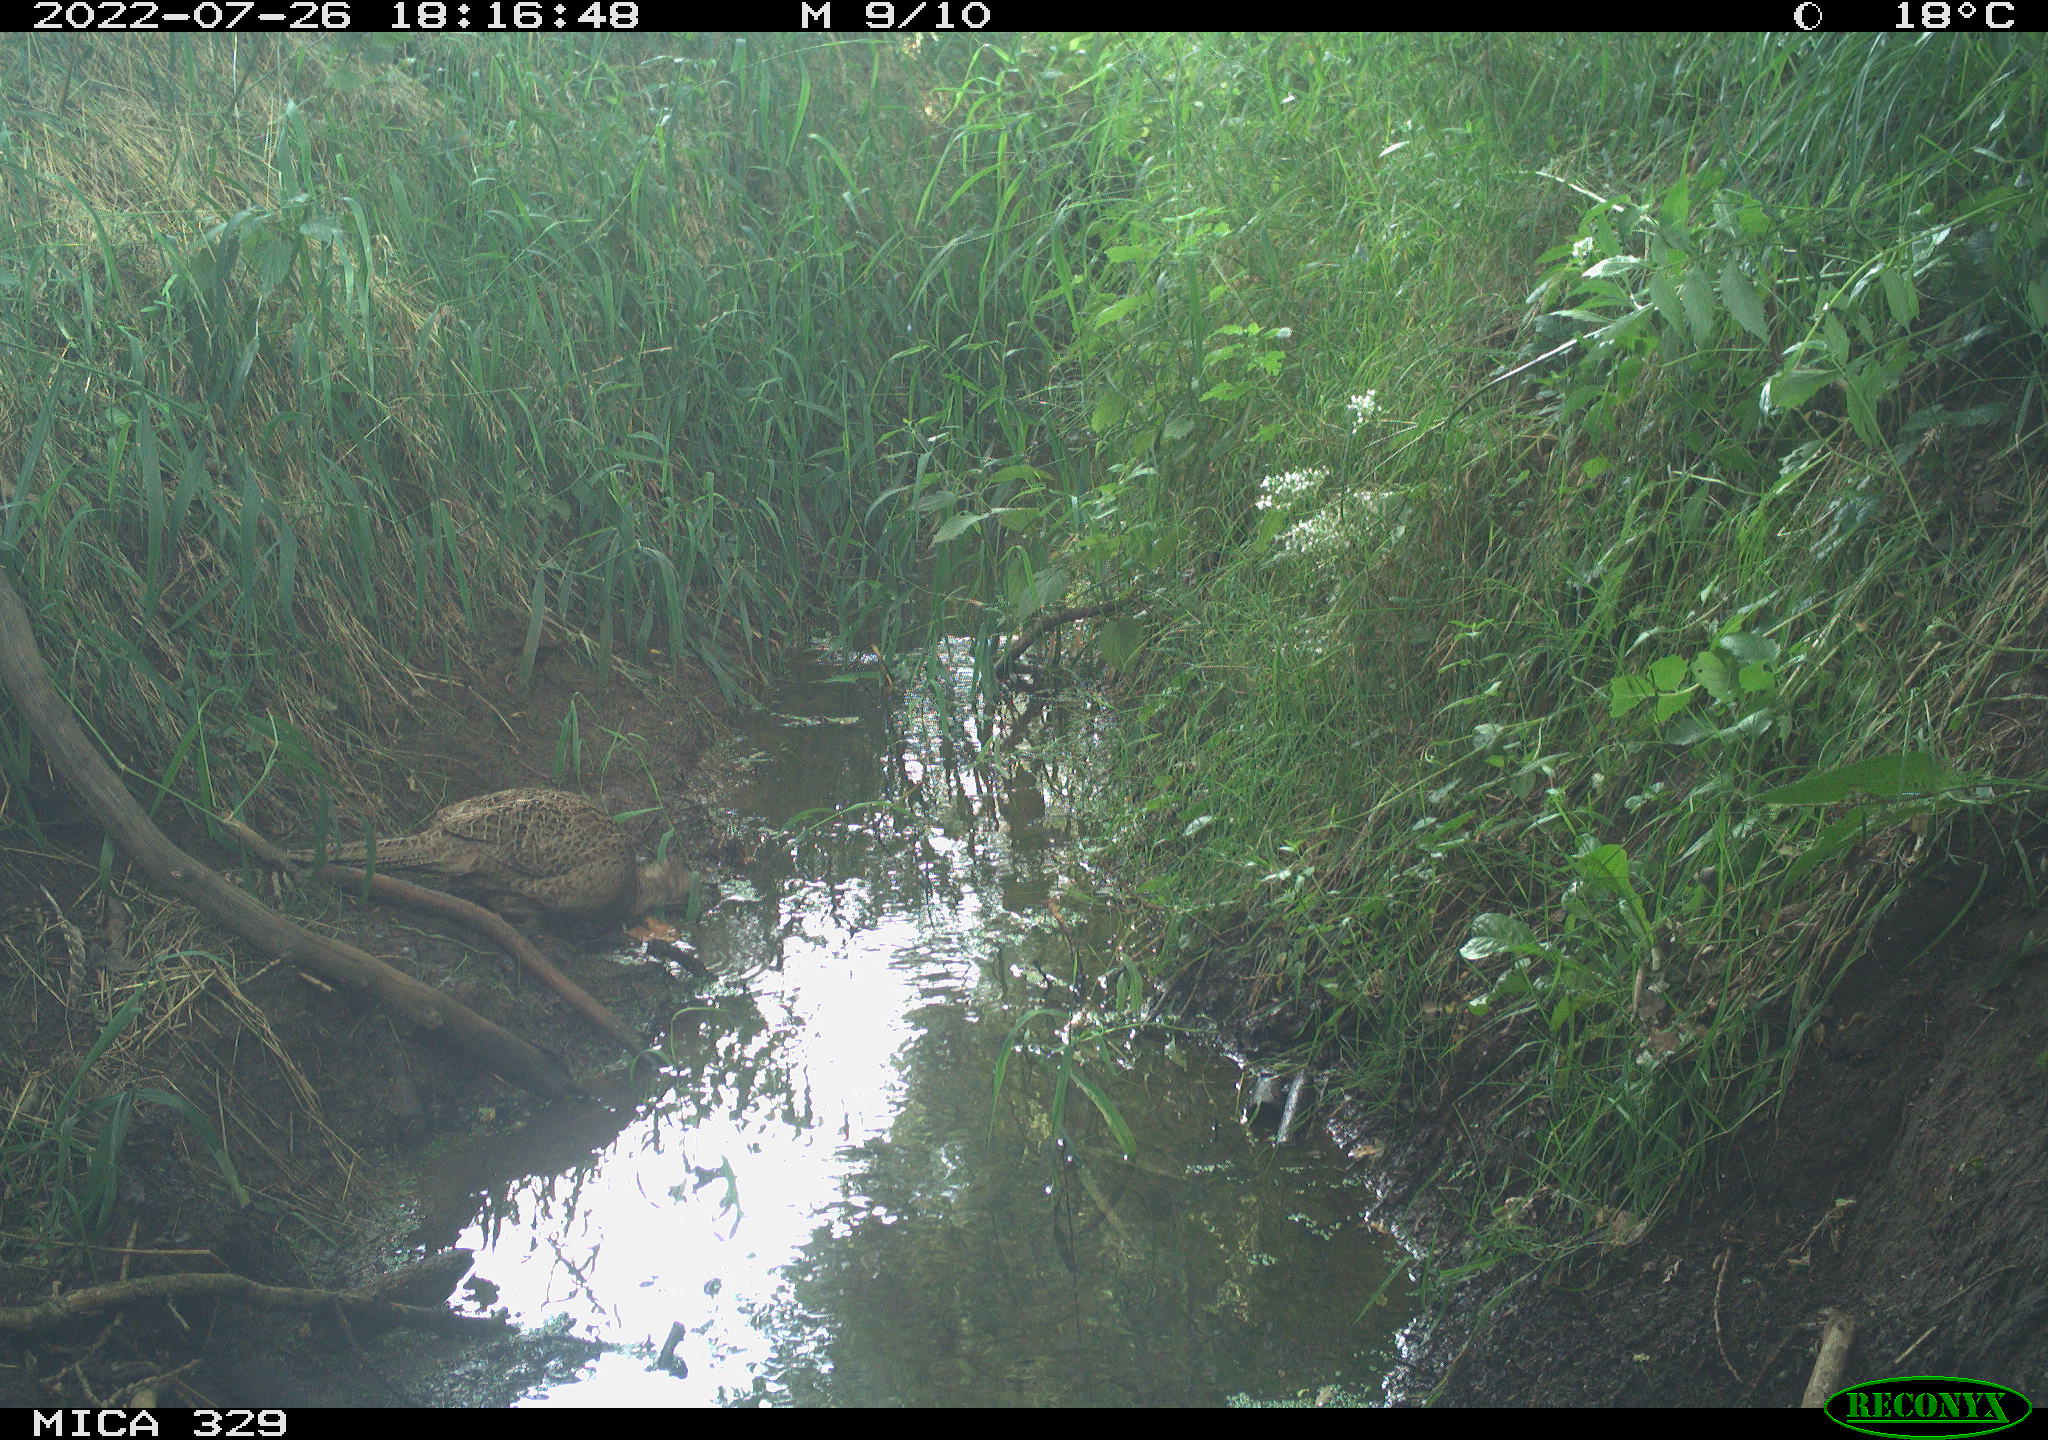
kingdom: Animalia
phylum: Chordata
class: Aves
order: Galliformes
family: Phasianidae
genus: Phasianus
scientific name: Phasianus colchicus
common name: Common pheasant
